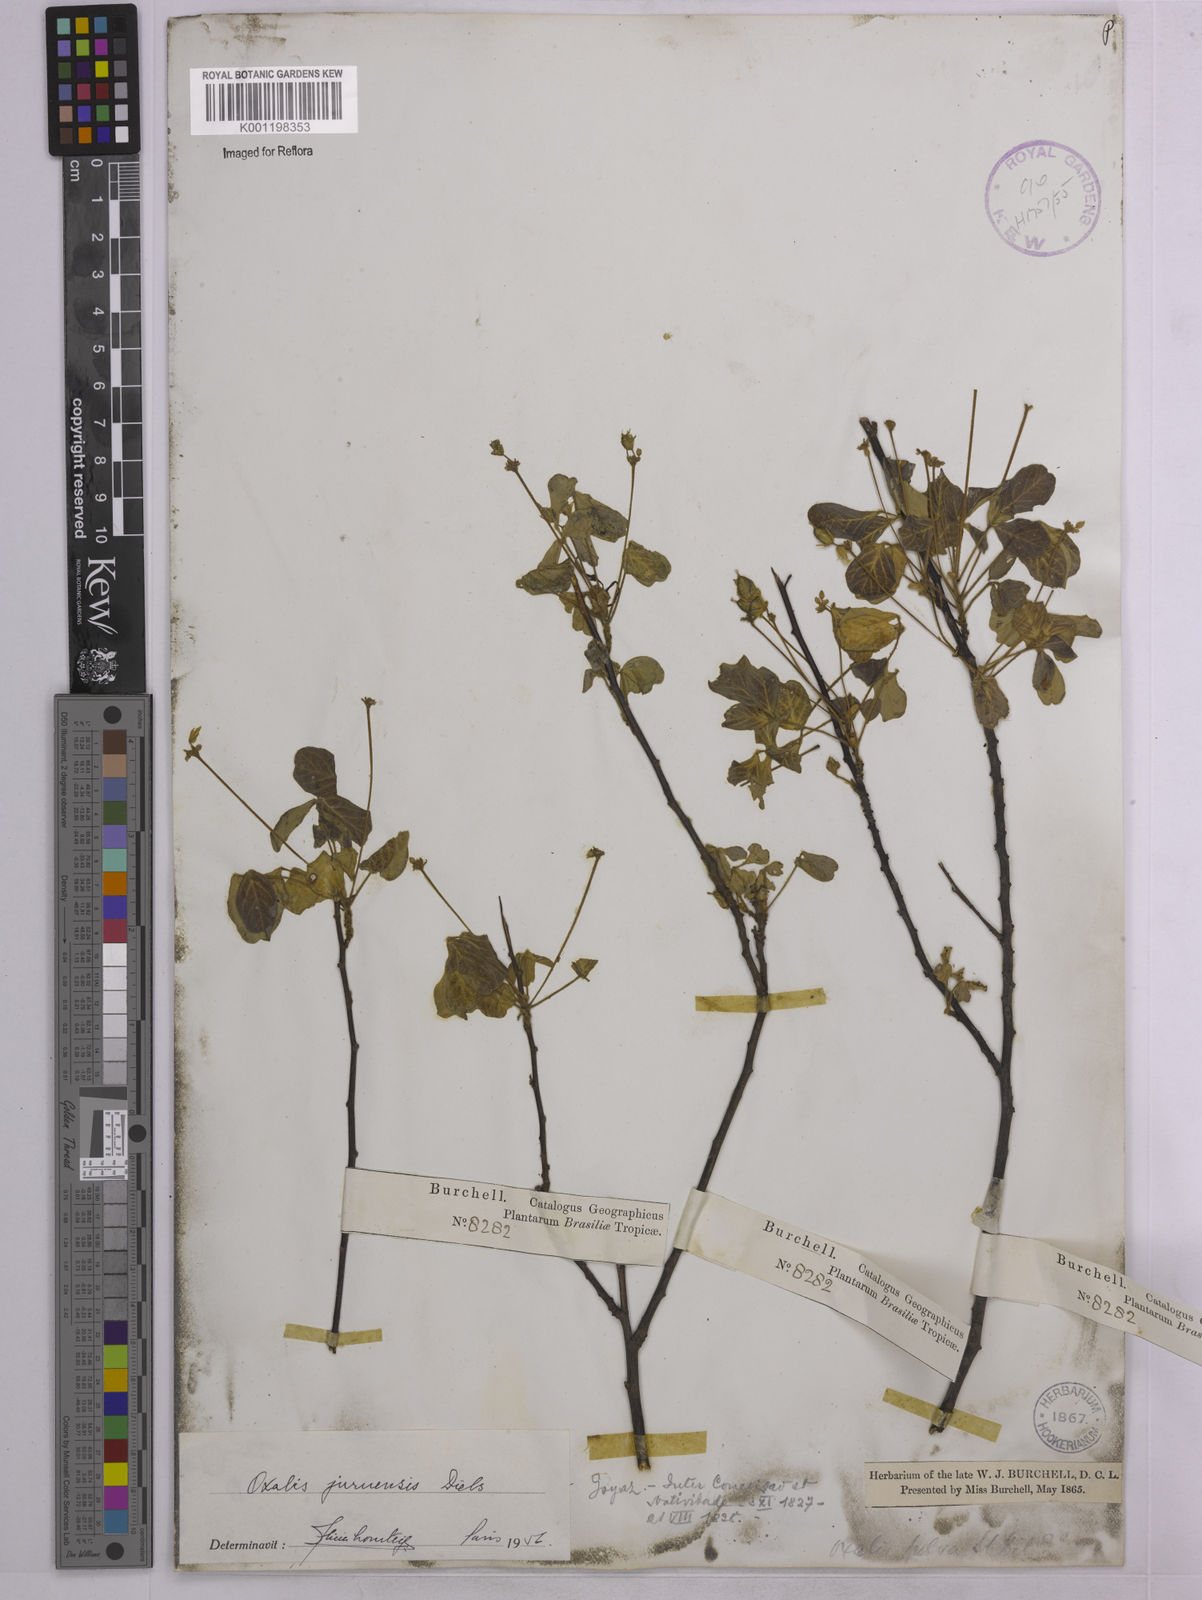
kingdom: Plantae
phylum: Tracheophyta
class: Magnoliopsida
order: Oxalidales
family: Oxalidaceae
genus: Oxalis
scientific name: Oxalis juruensis
